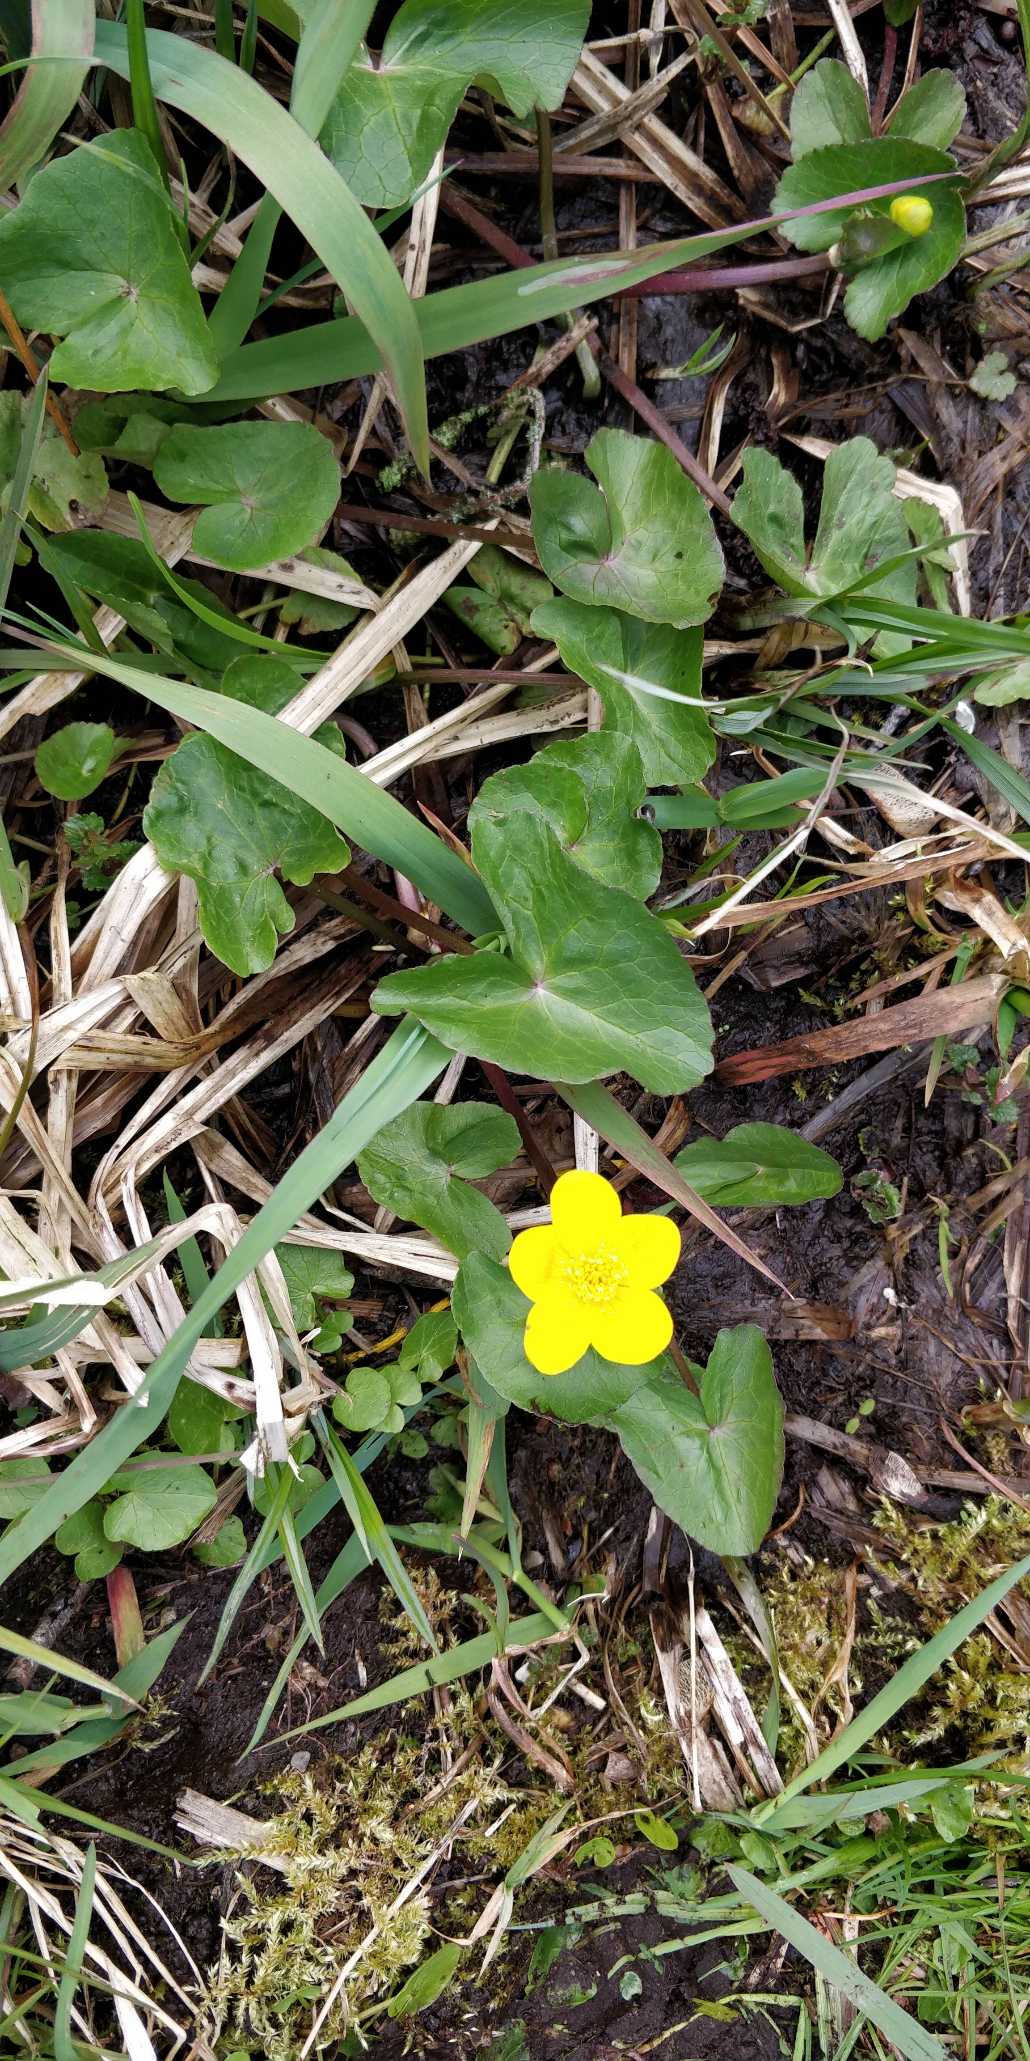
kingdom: Plantae
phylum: Tracheophyta
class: Magnoliopsida
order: Ranunculales
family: Ranunculaceae
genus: Caltha
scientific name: Caltha palustris
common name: Eng-kabbeleje
